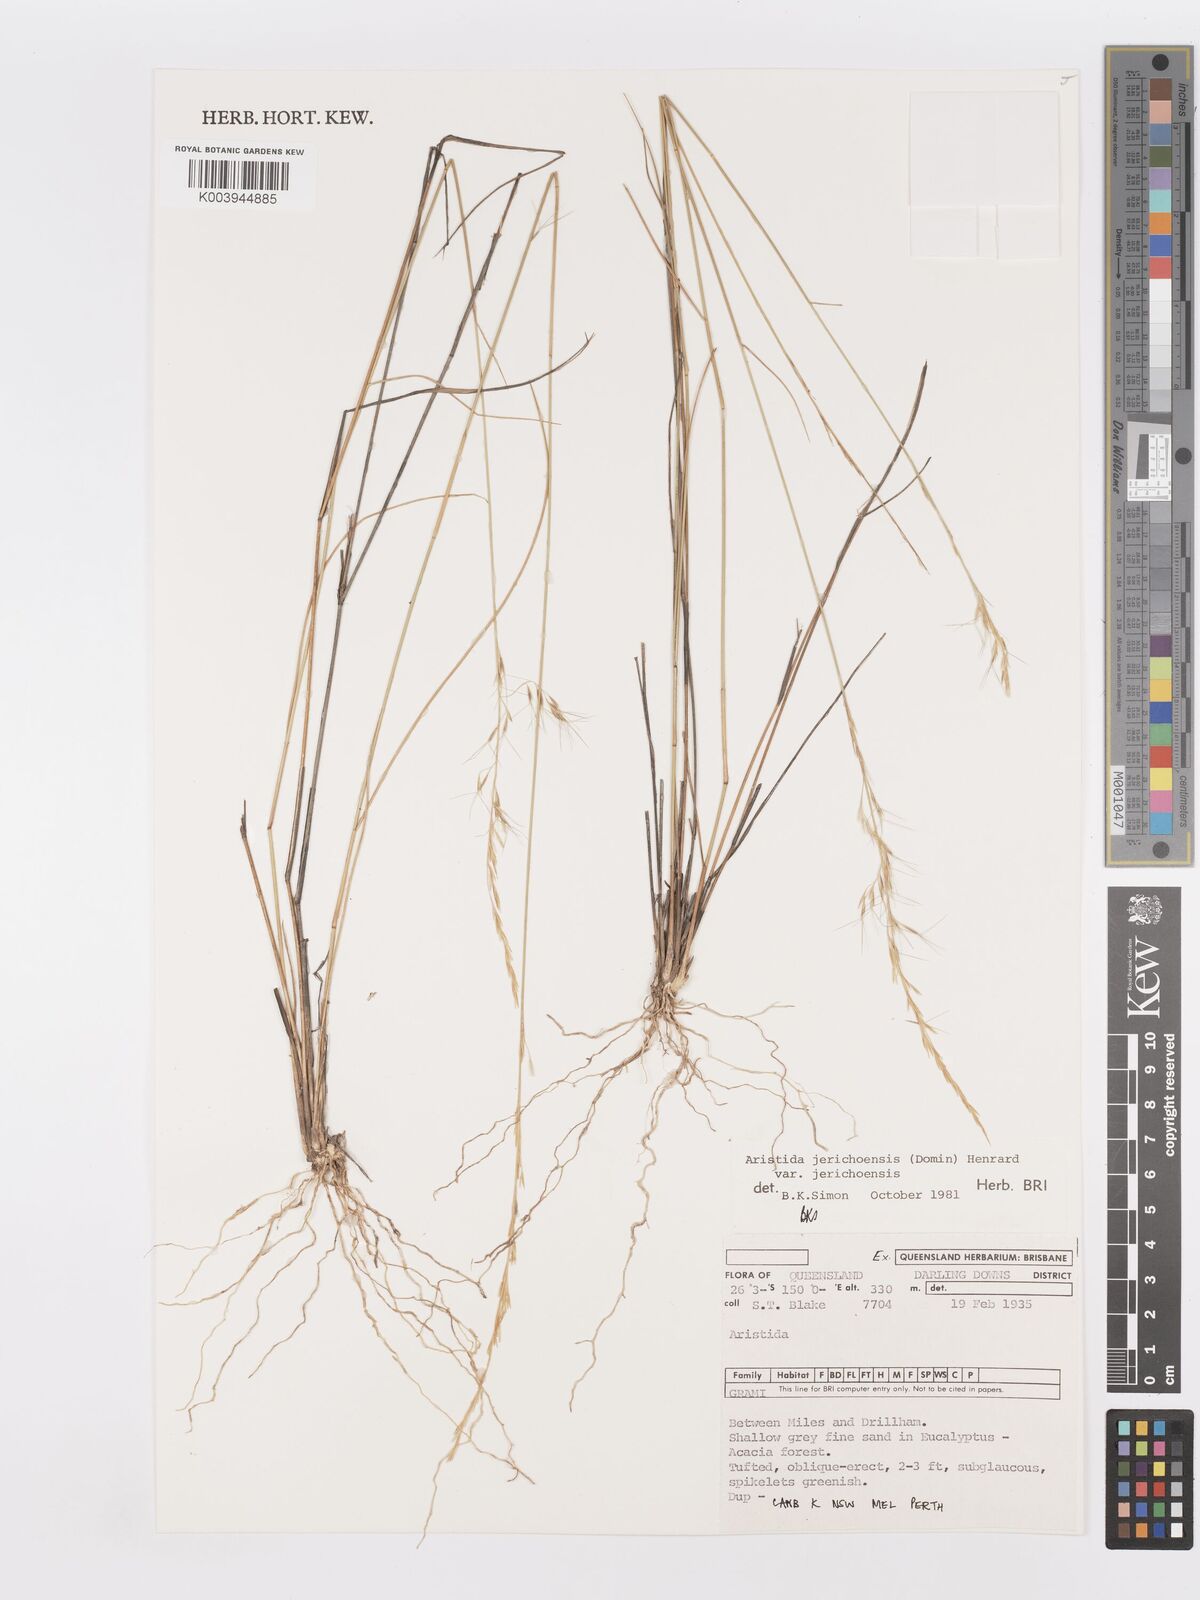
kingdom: Plantae
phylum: Tracheophyta
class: Liliopsida
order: Poales
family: Poaceae
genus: Aristida
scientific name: Aristida jerichoensis
